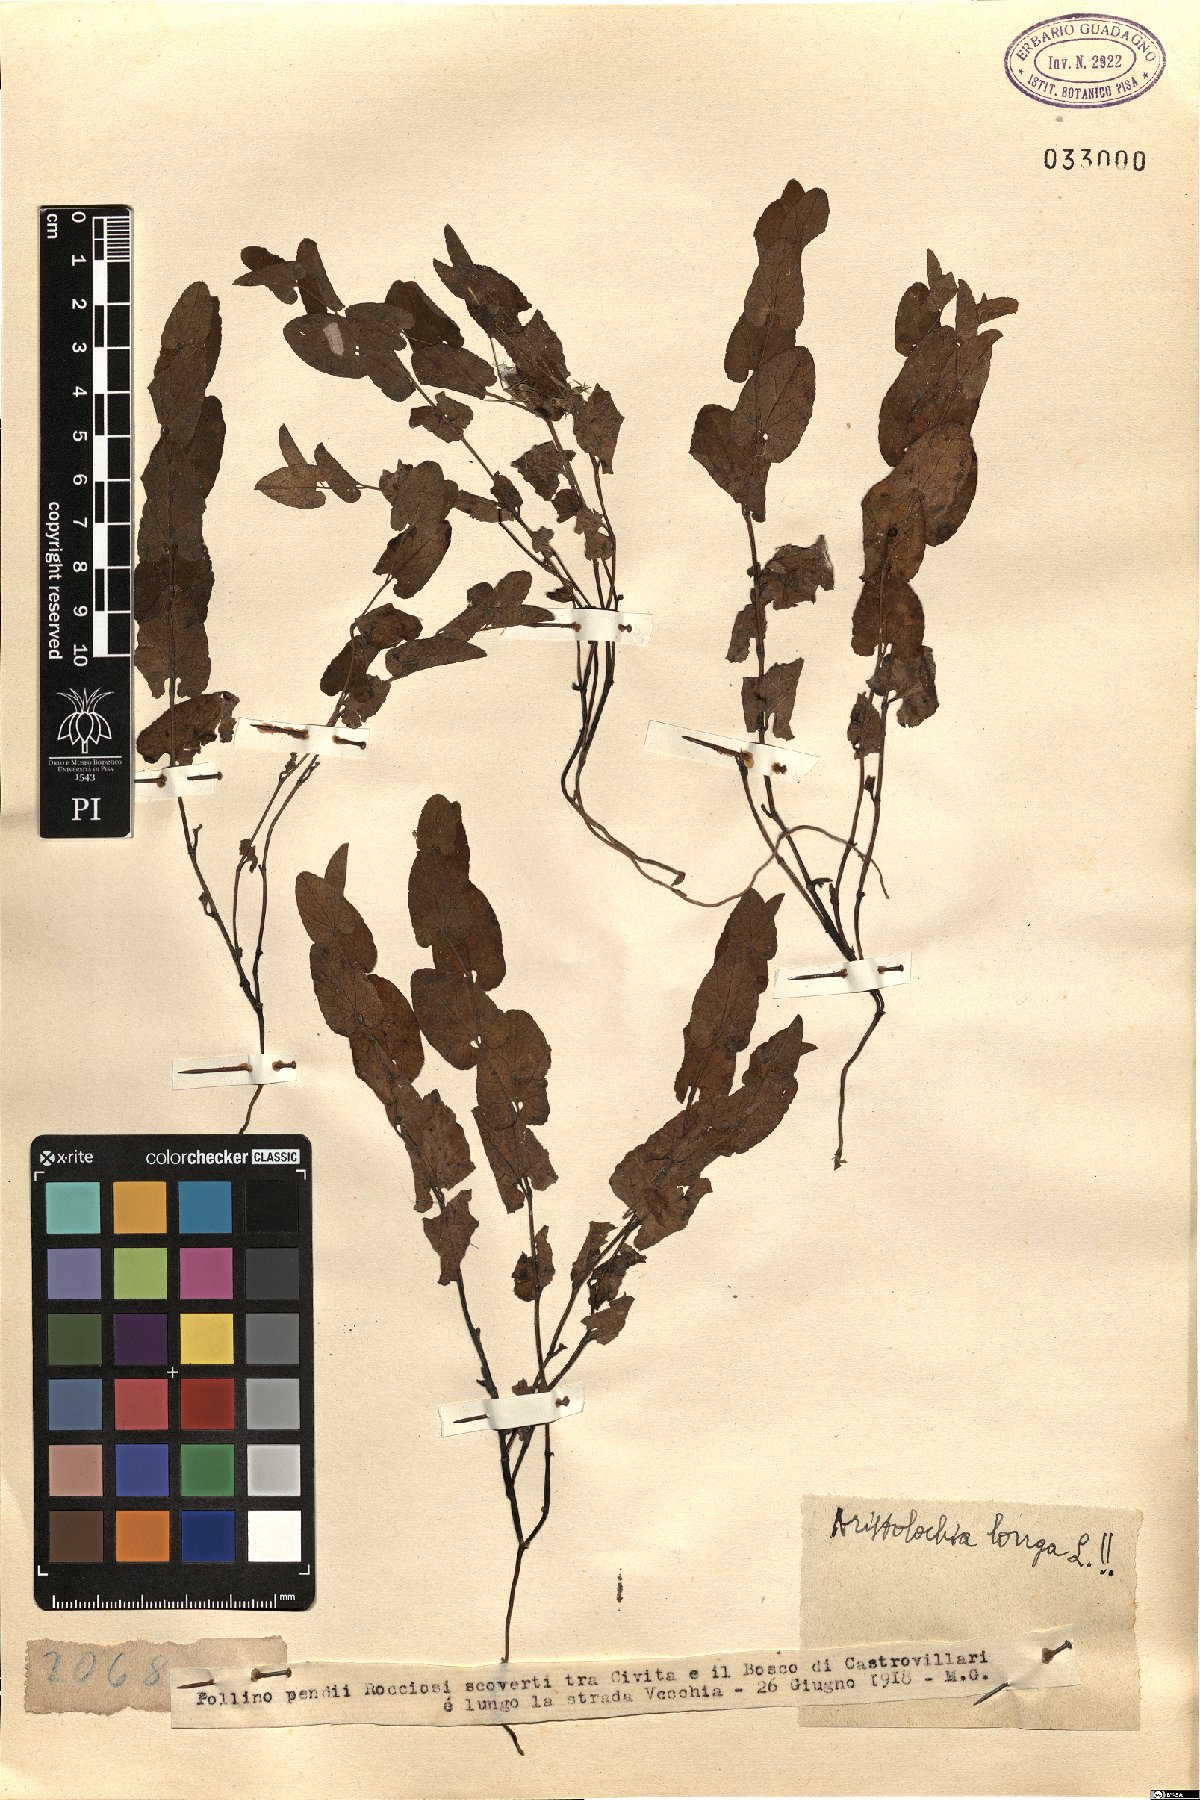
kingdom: Plantae
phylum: Tracheophyta
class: Magnoliopsida
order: Piperales
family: Aristolochiaceae
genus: Aristolochia
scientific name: Aristolochia fontanesii
